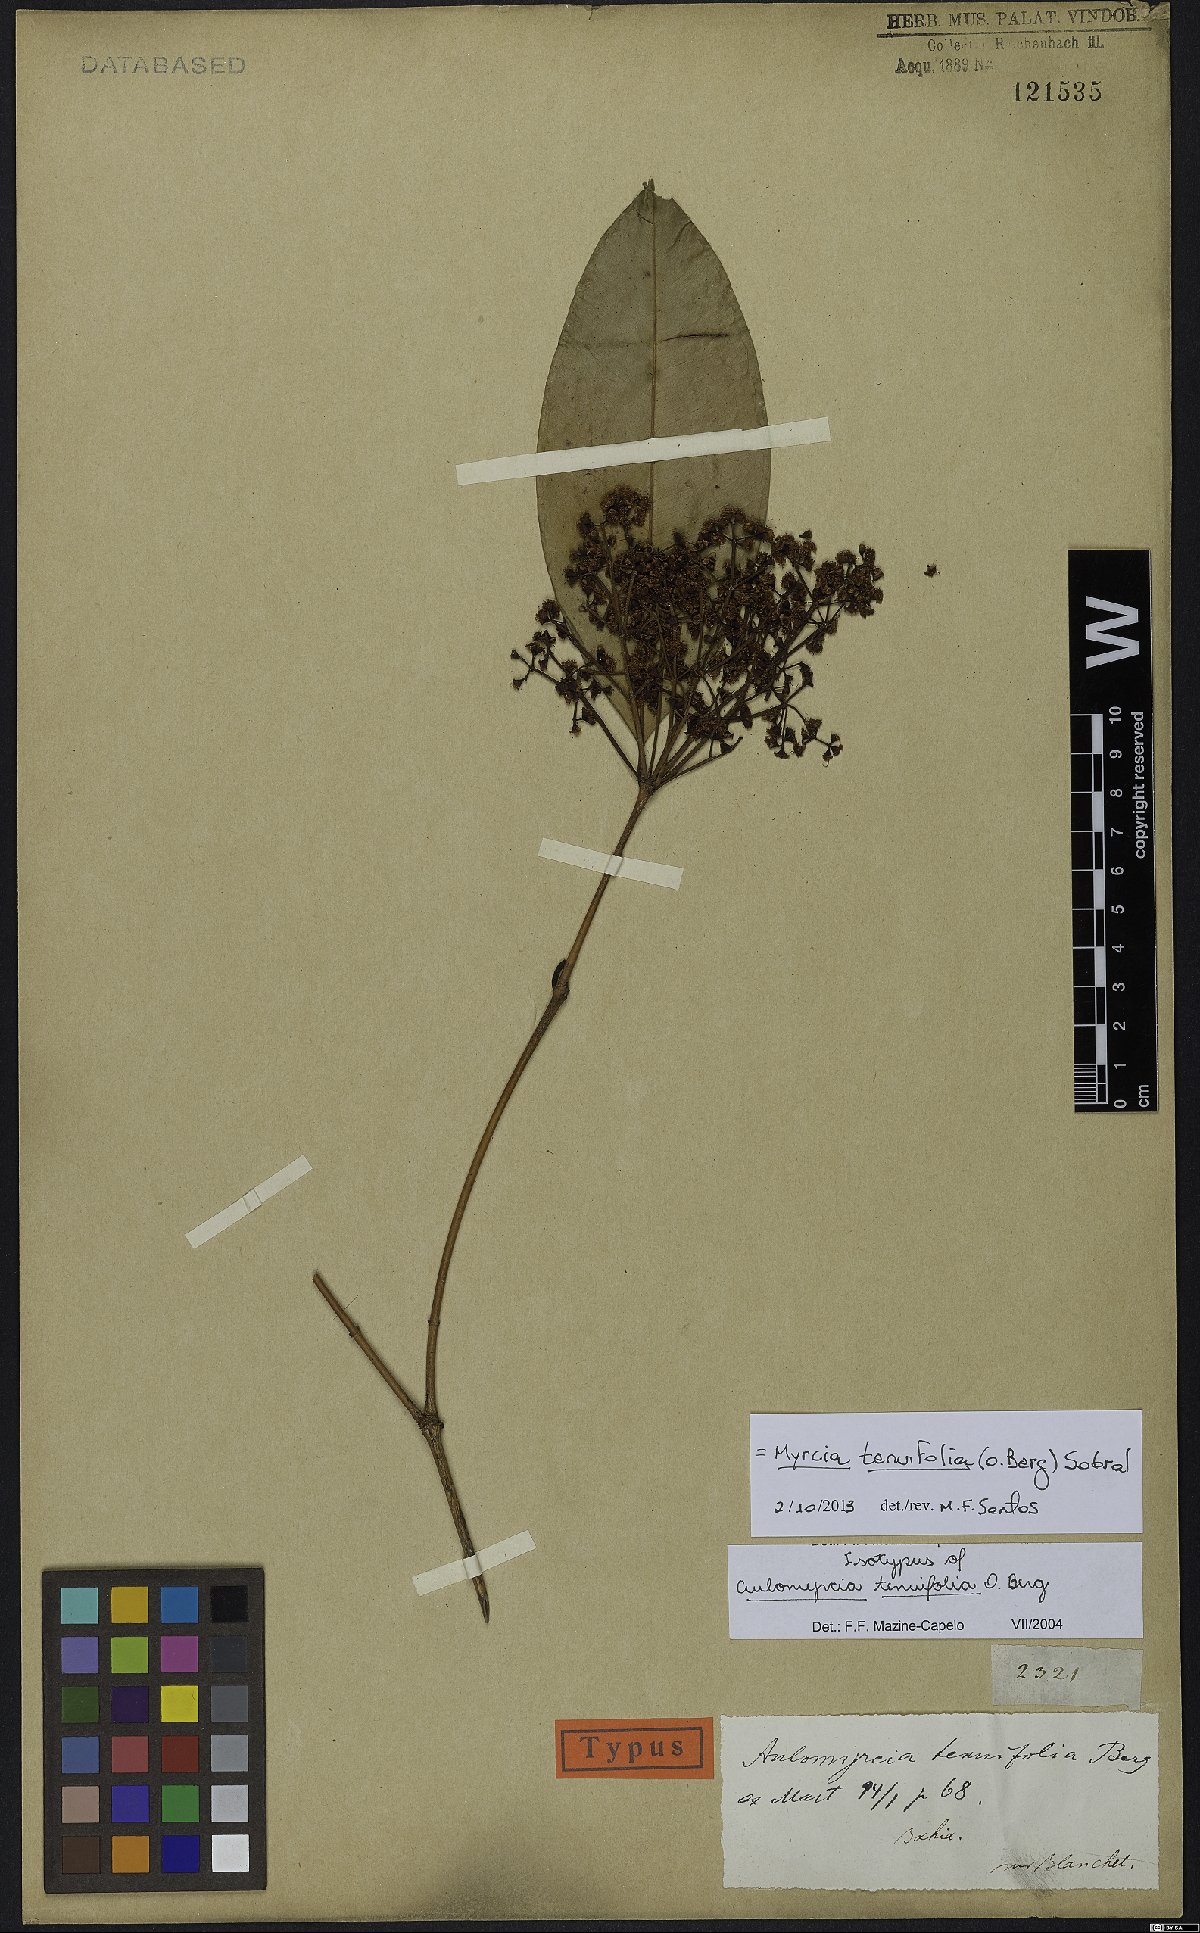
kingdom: Plantae
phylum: Tracheophyta
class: Magnoliopsida
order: Myrtales
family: Myrtaceae
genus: Myrcia
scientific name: Myrcia tenuifolia
